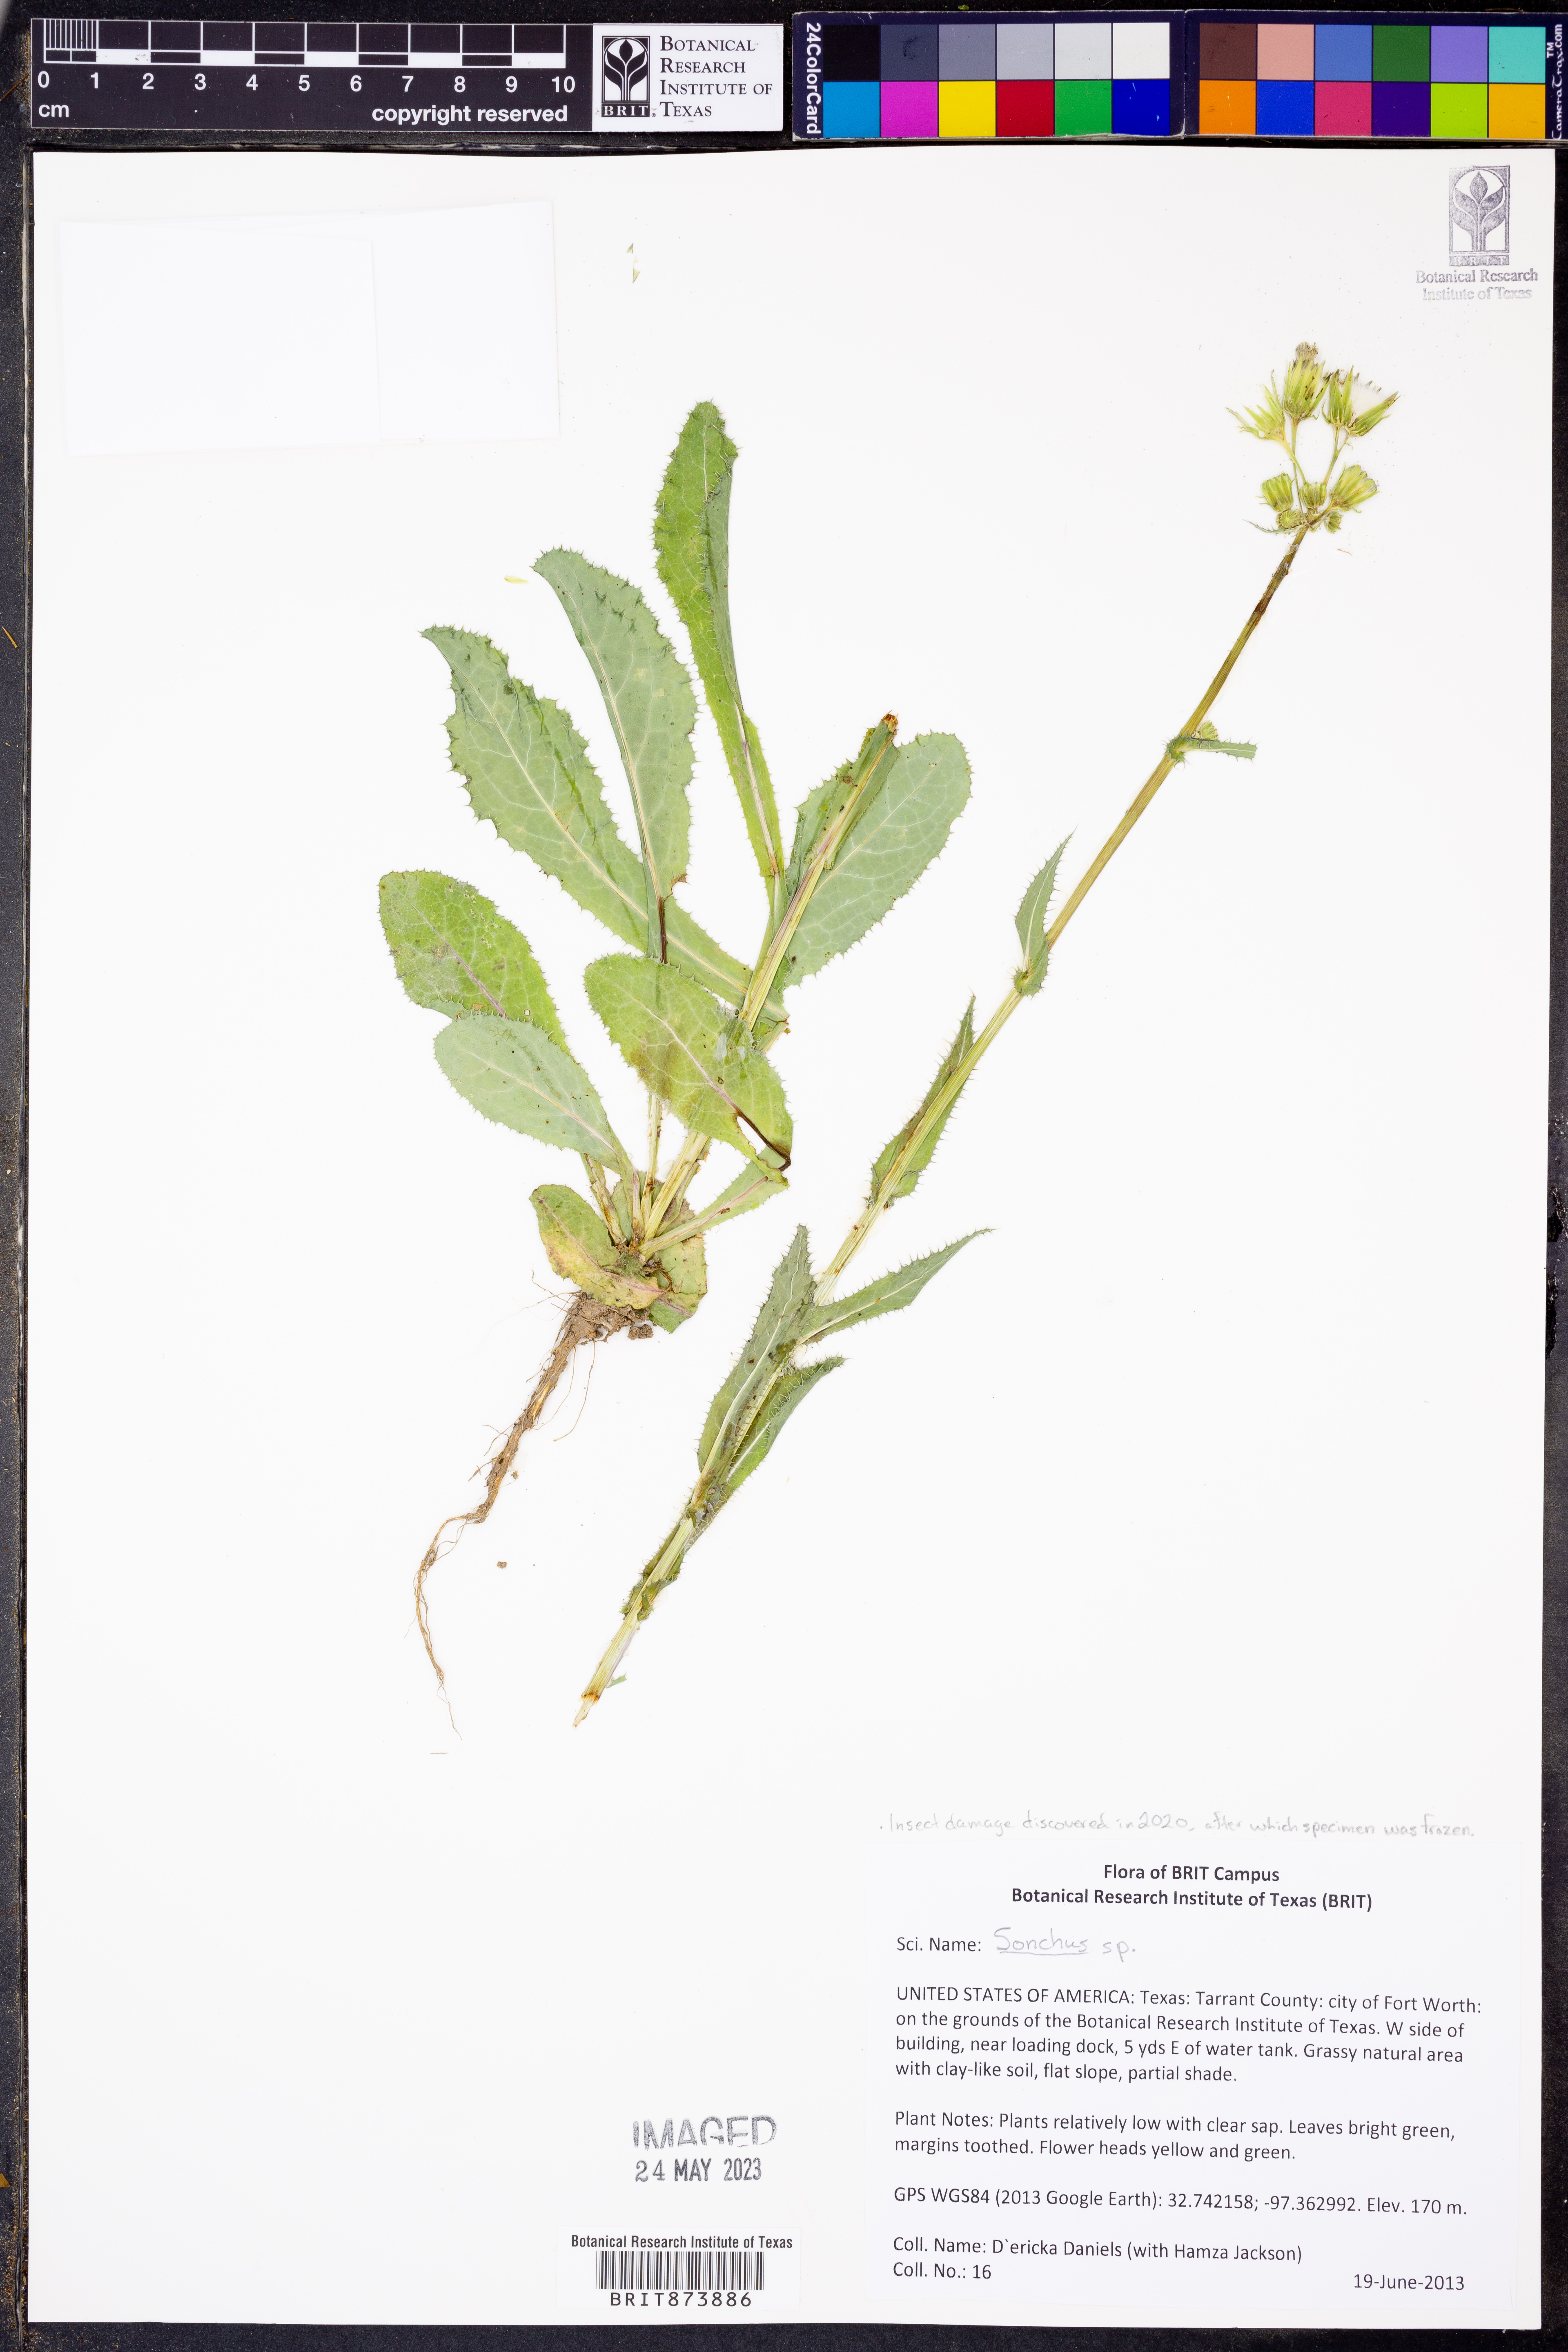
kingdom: Plantae
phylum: Tracheophyta
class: Magnoliopsida
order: Asterales
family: Asteraceae
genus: Sonchus
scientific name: Sonchus
